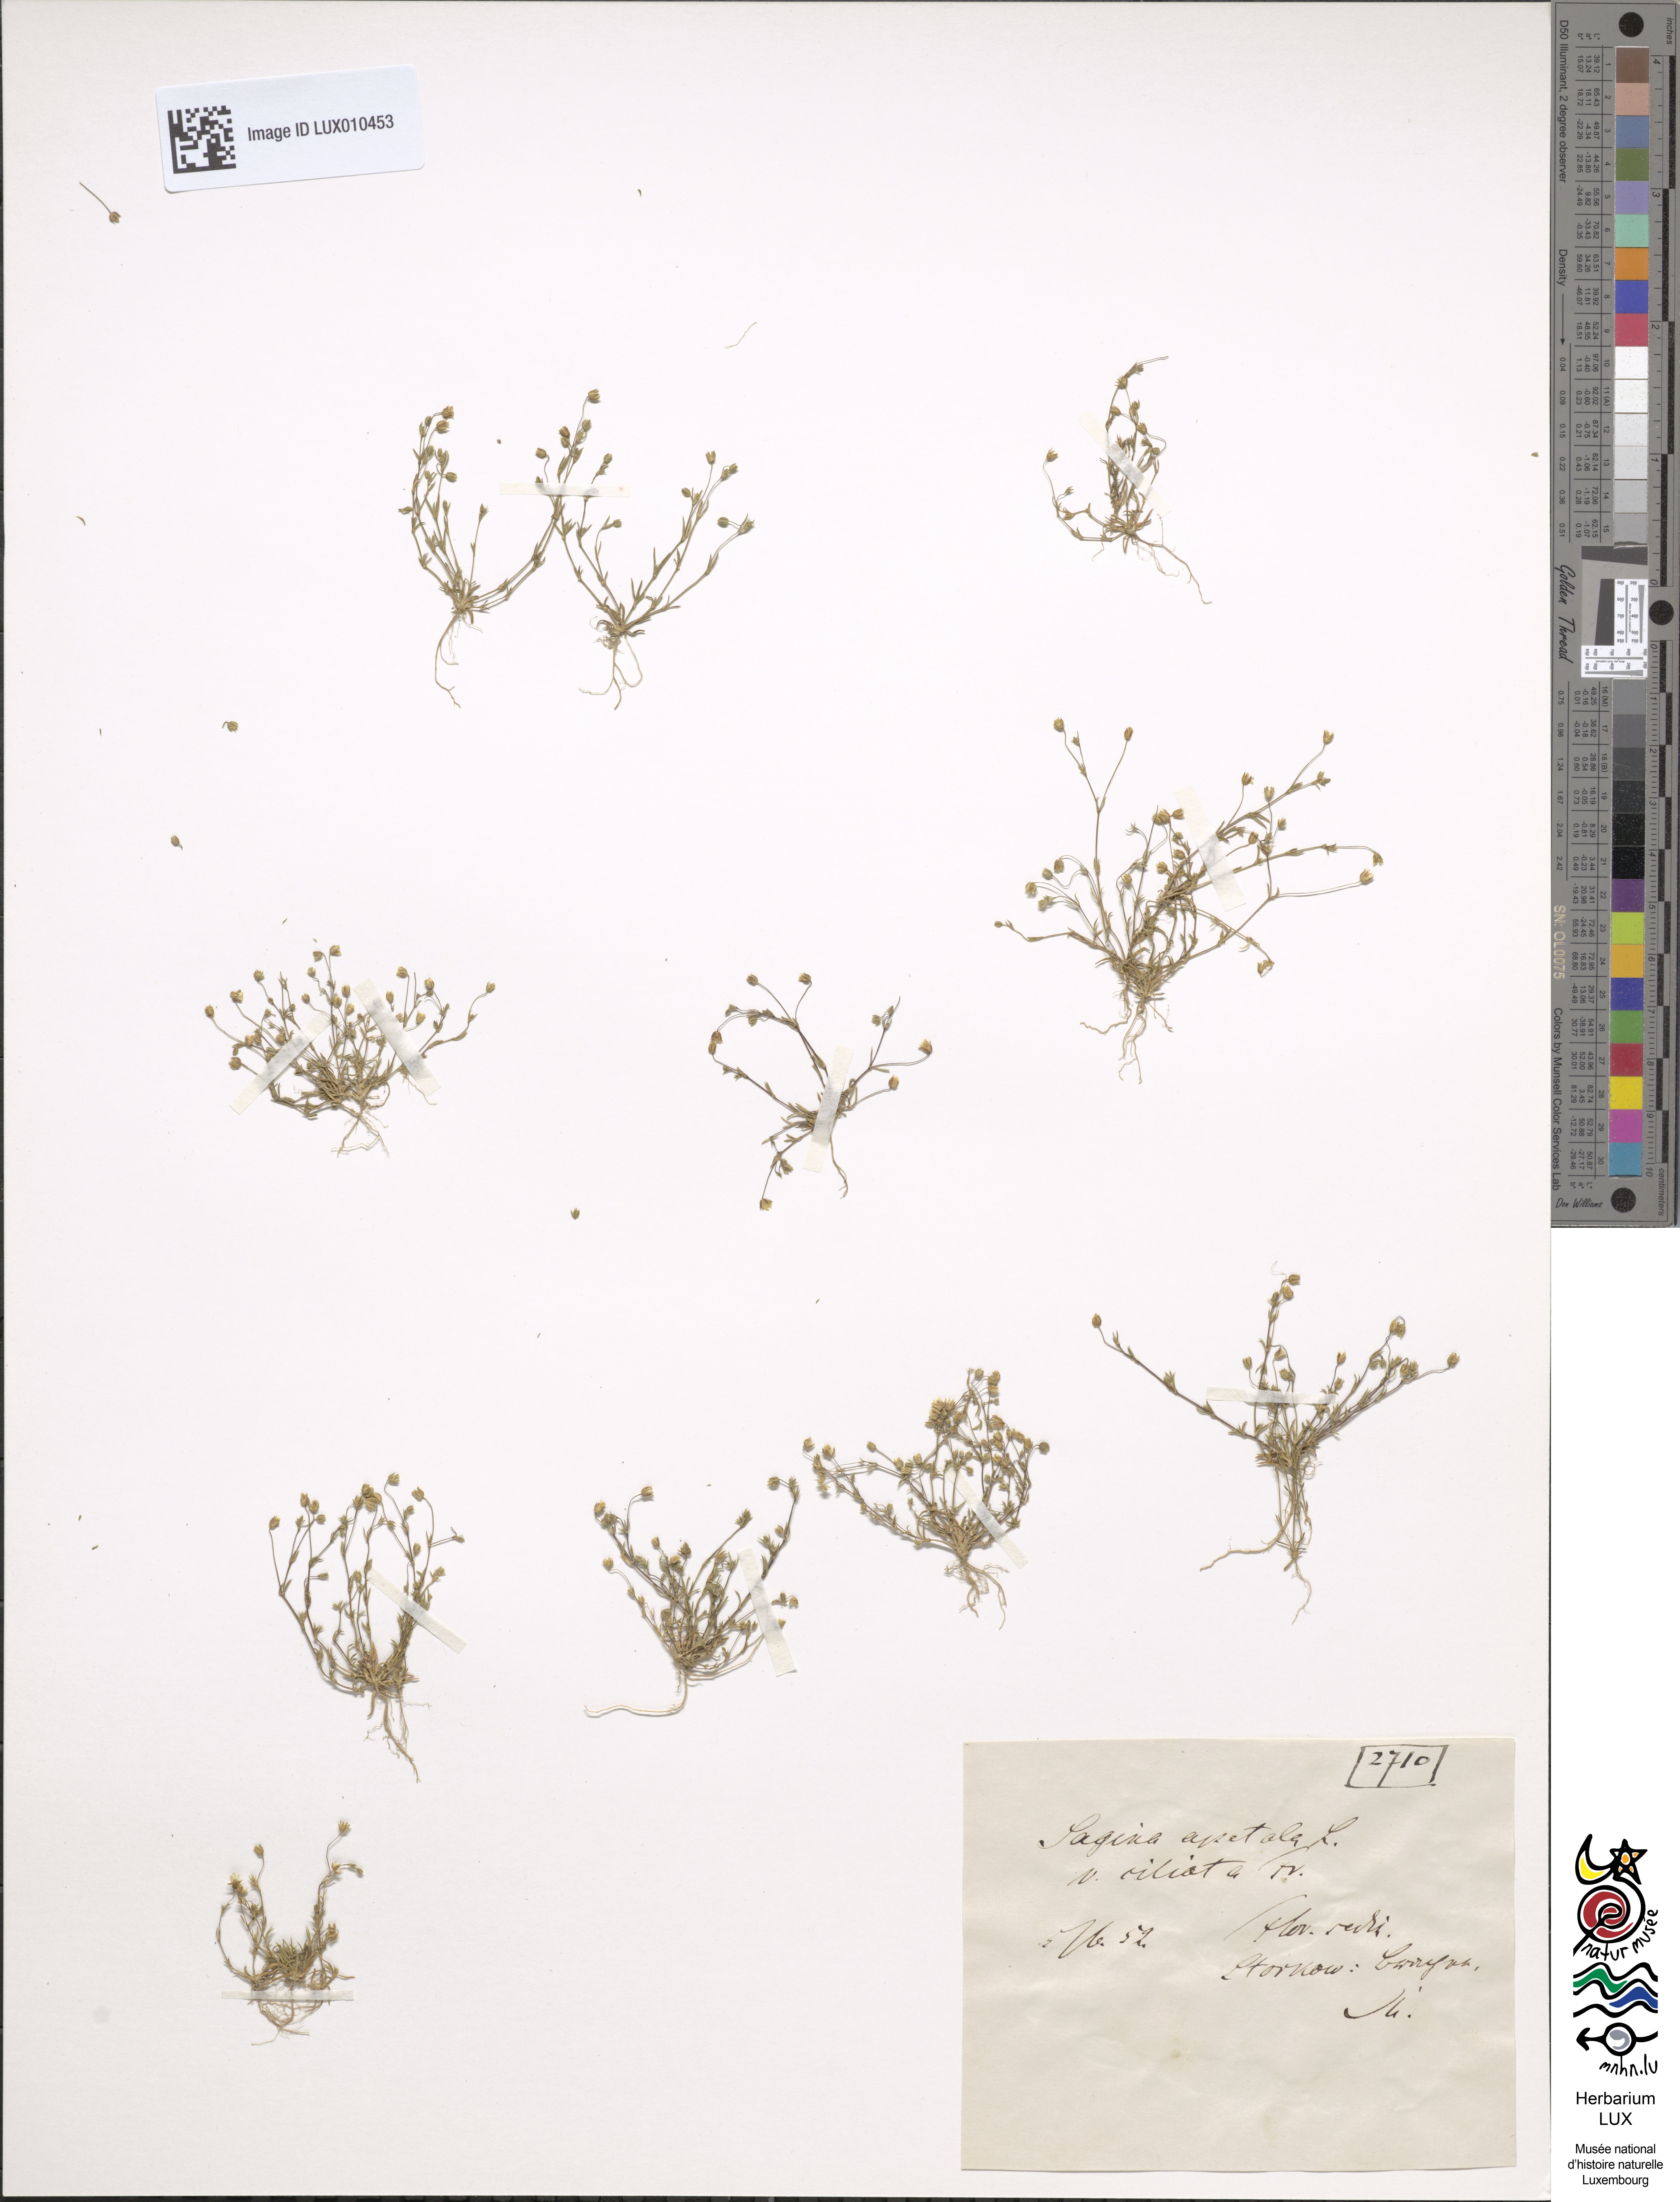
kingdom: Plantae
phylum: Tracheophyta
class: Magnoliopsida
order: Caryophyllales
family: Caryophyllaceae
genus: Sagina
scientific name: Sagina apetala
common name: Annual pearlwort
